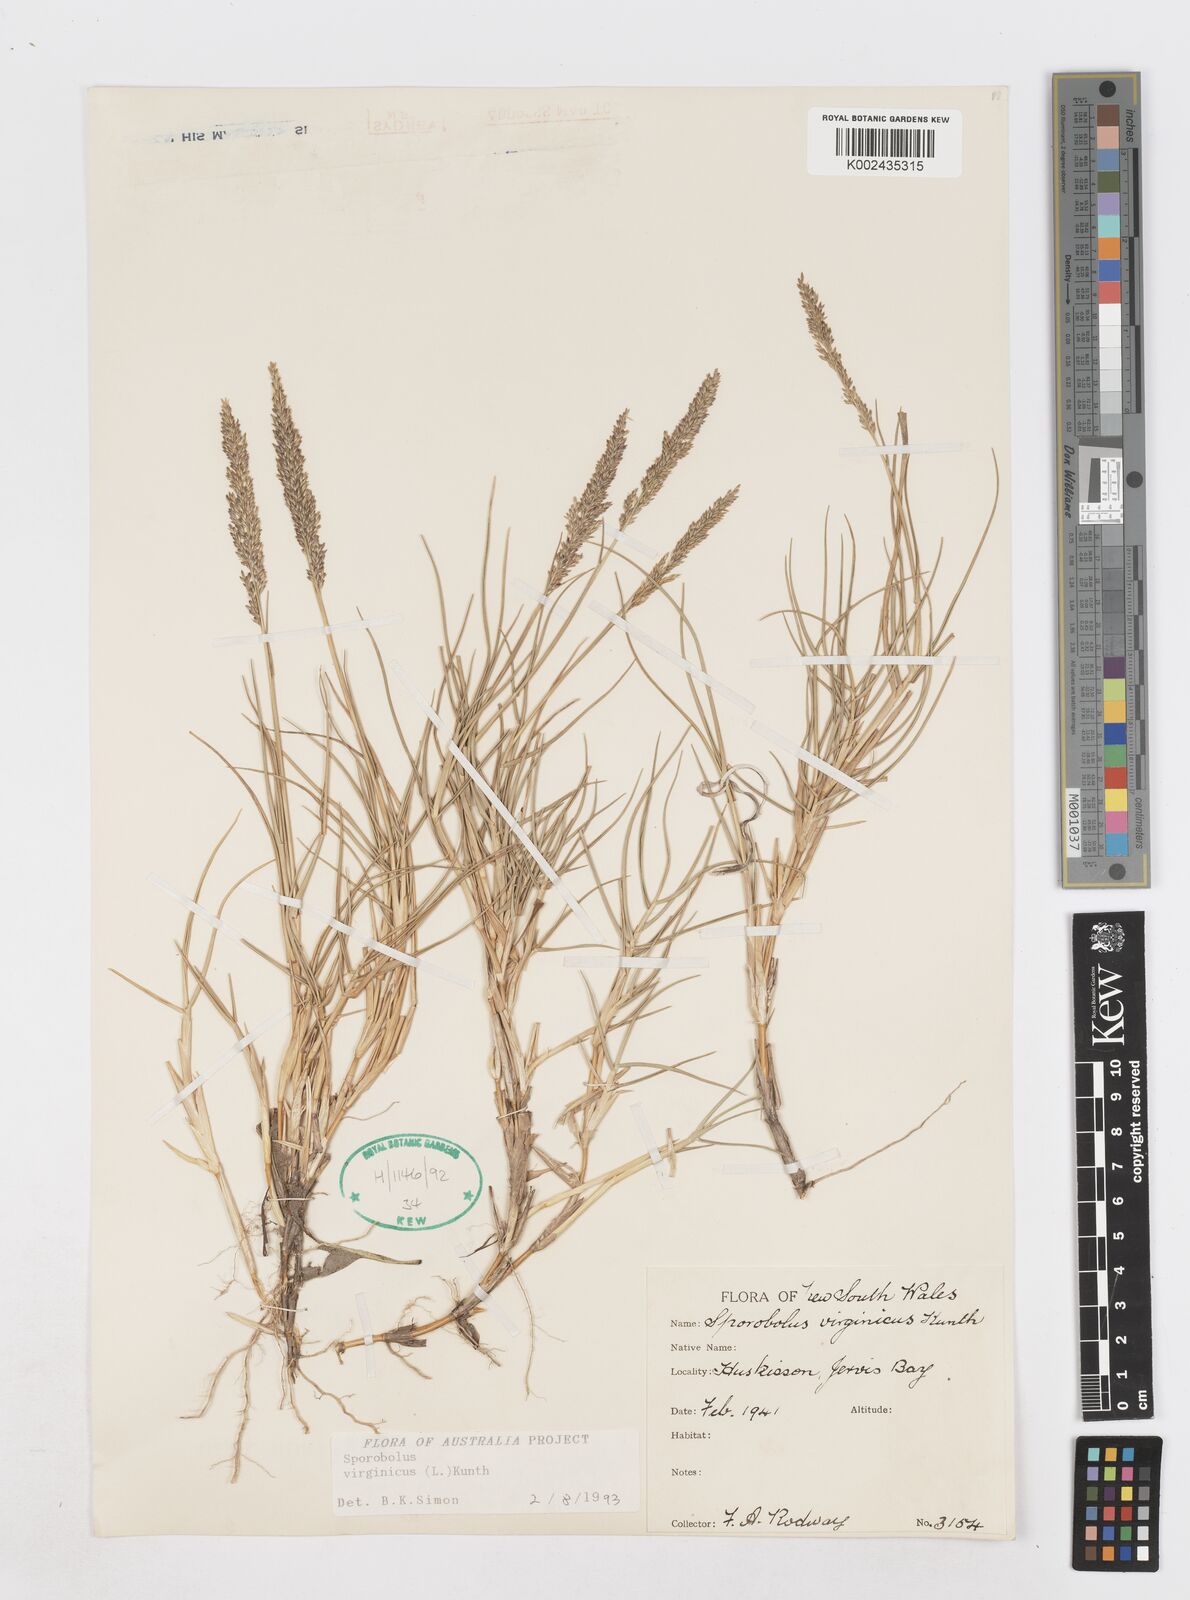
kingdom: Plantae
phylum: Tracheophyta
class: Liliopsida
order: Poales
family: Poaceae
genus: Sporobolus
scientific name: Sporobolus virginicus
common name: Beach dropseed
